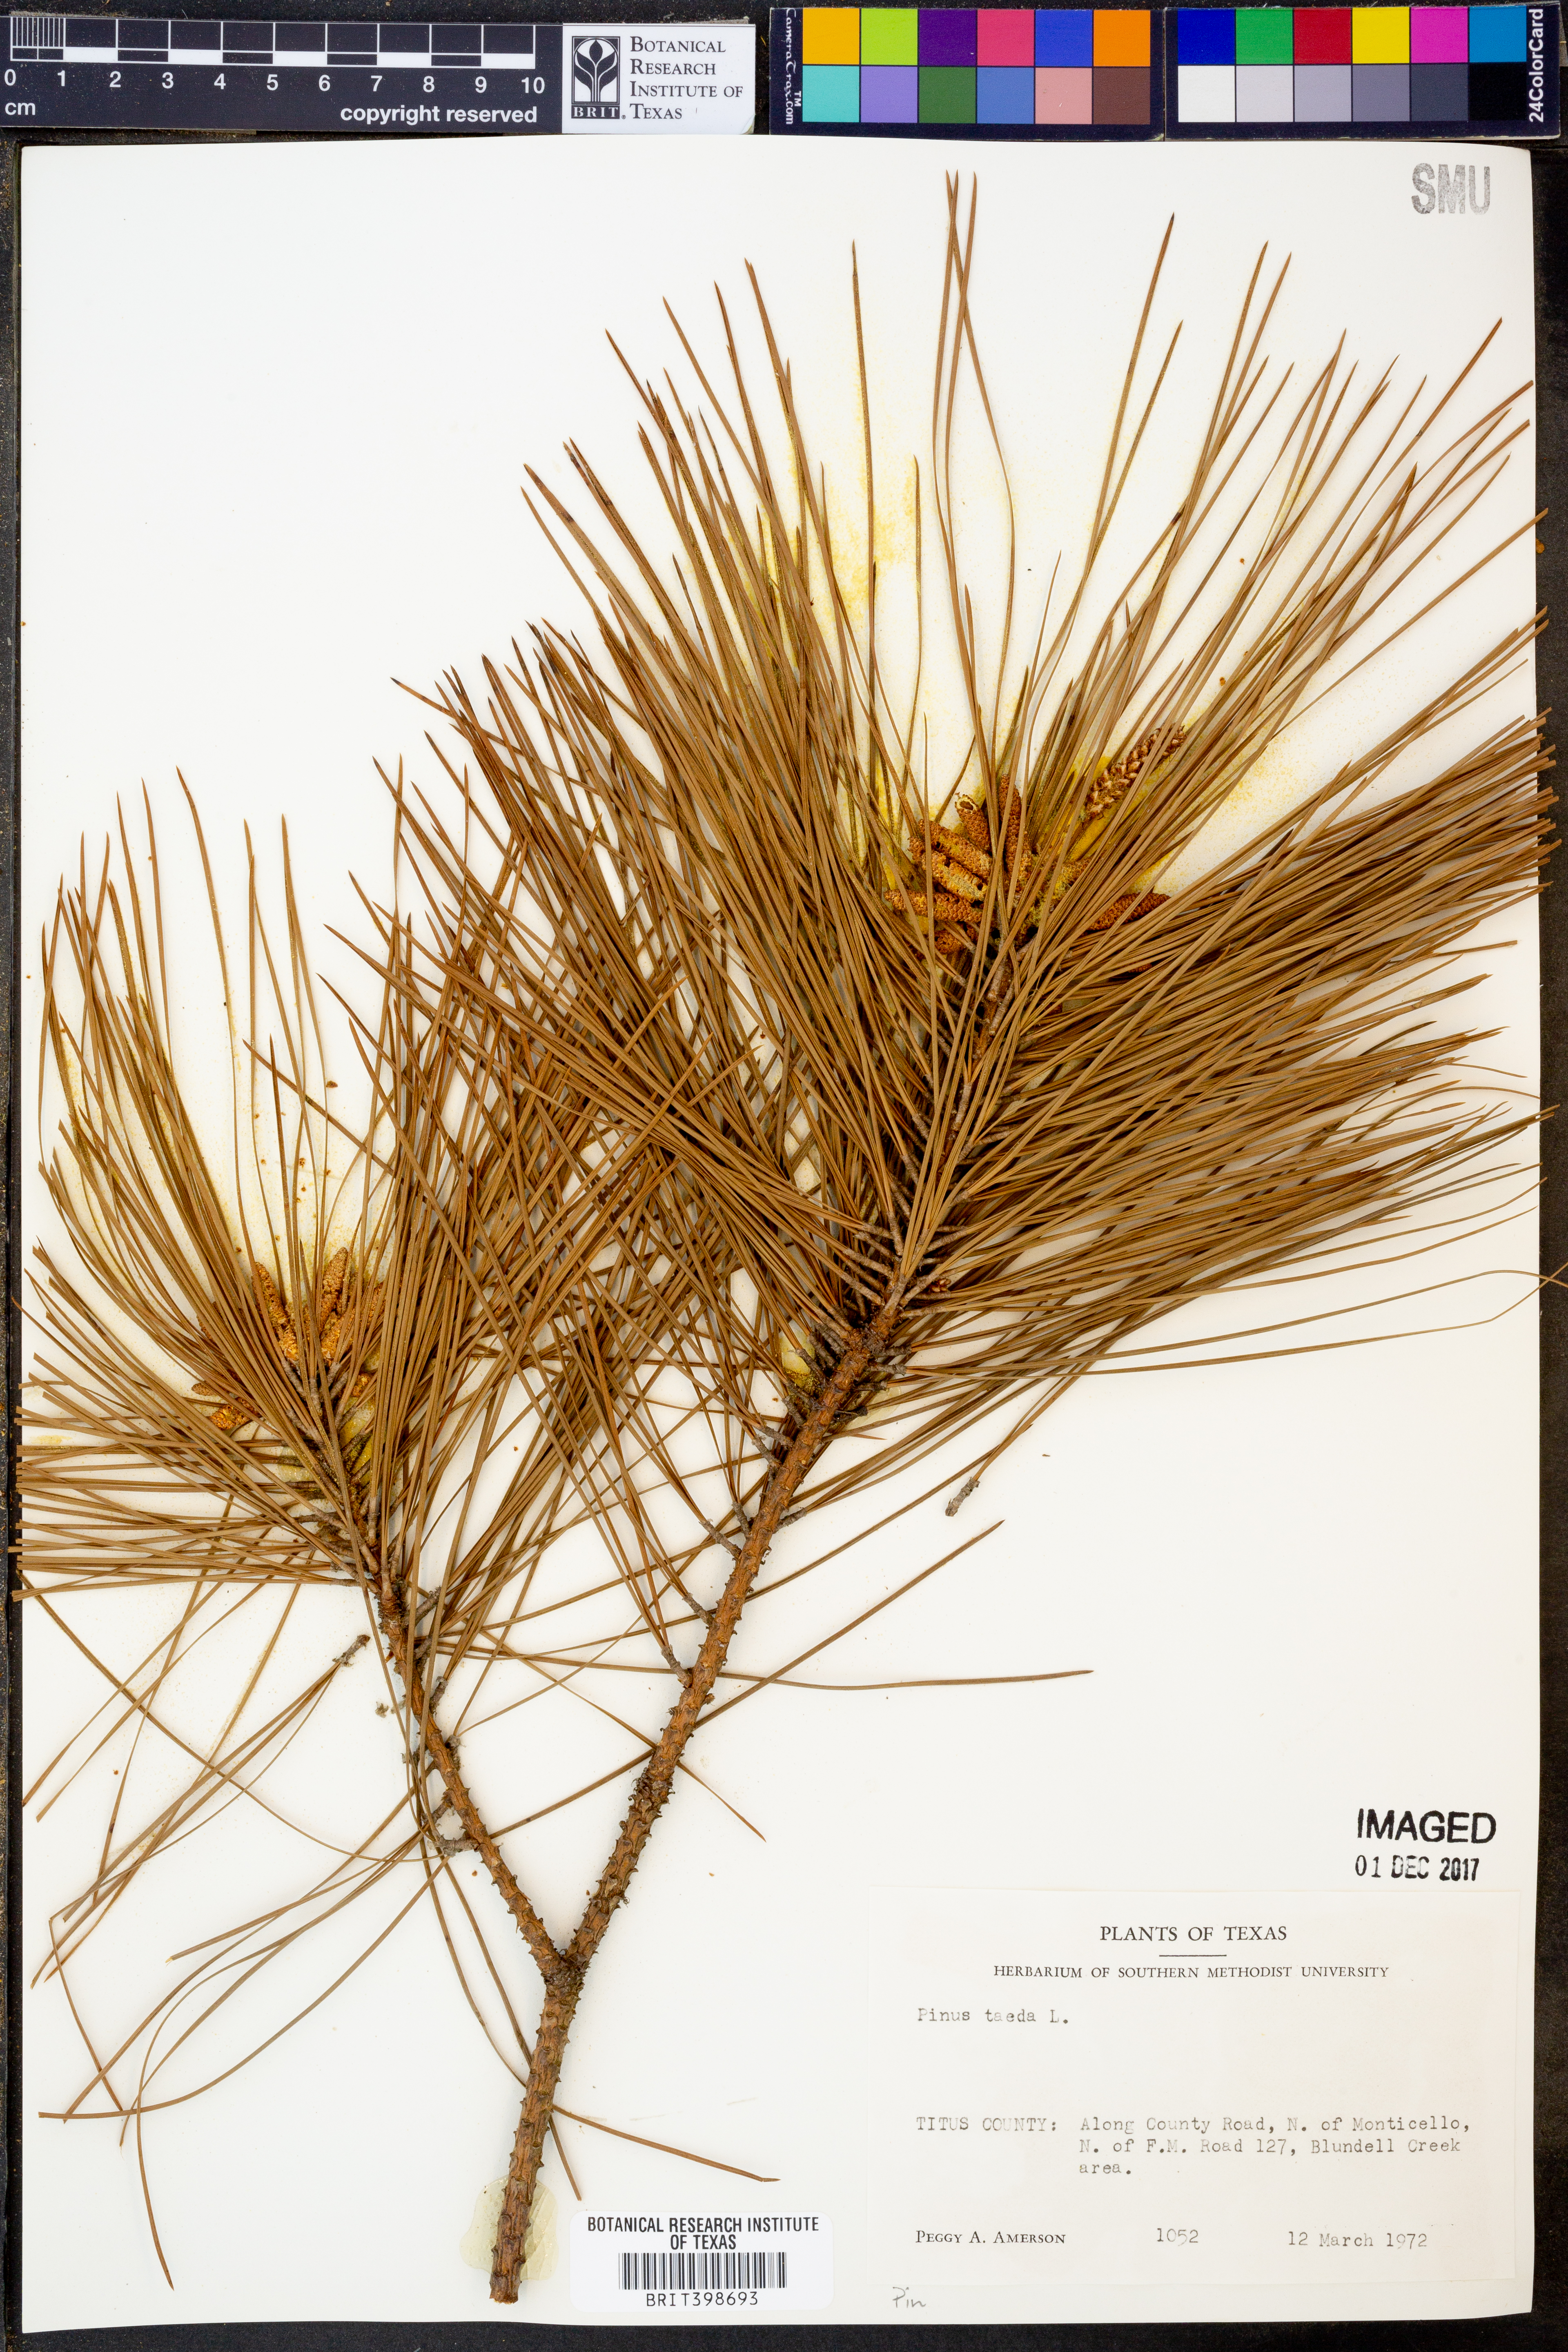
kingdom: Plantae
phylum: Tracheophyta
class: Pinopsida
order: Pinales
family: Pinaceae
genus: Pinus
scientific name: Pinus taeda
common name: Loblolly pine
